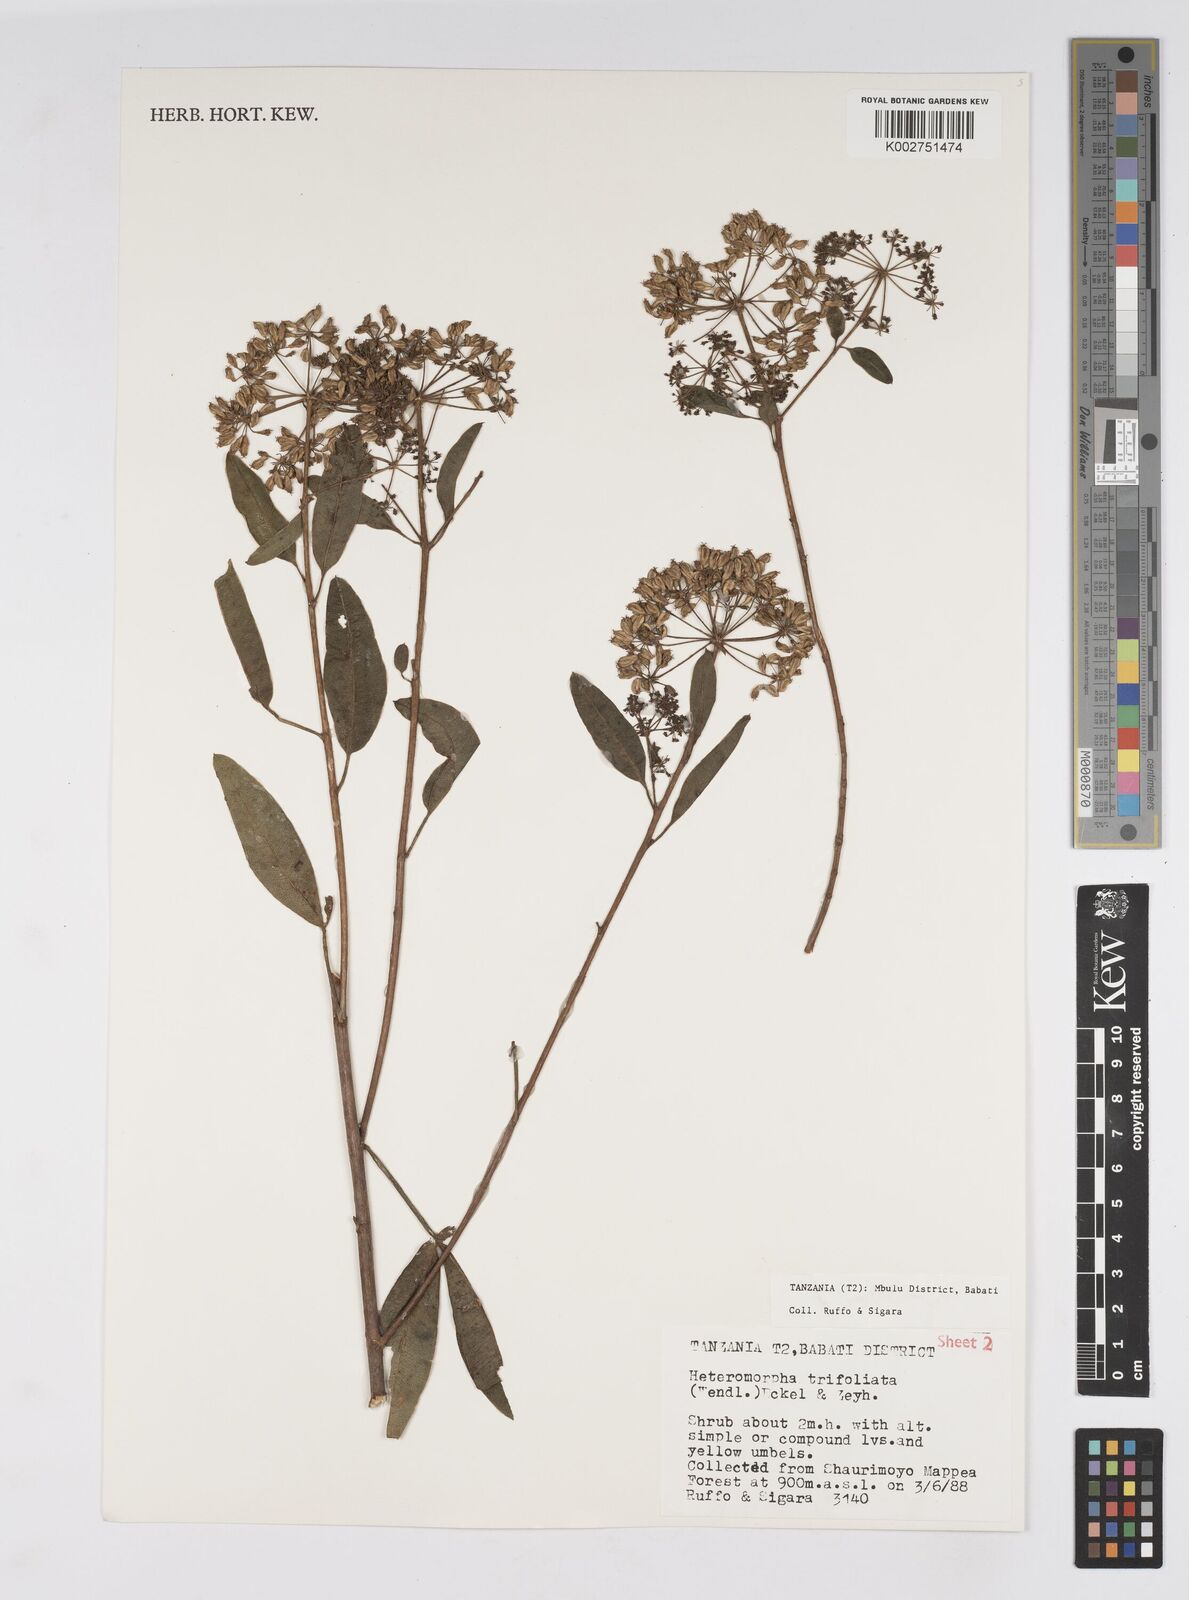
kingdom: Plantae
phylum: Tracheophyta
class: Magnoliopsida
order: Apiales
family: Apiaceae
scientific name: Apiaceae
